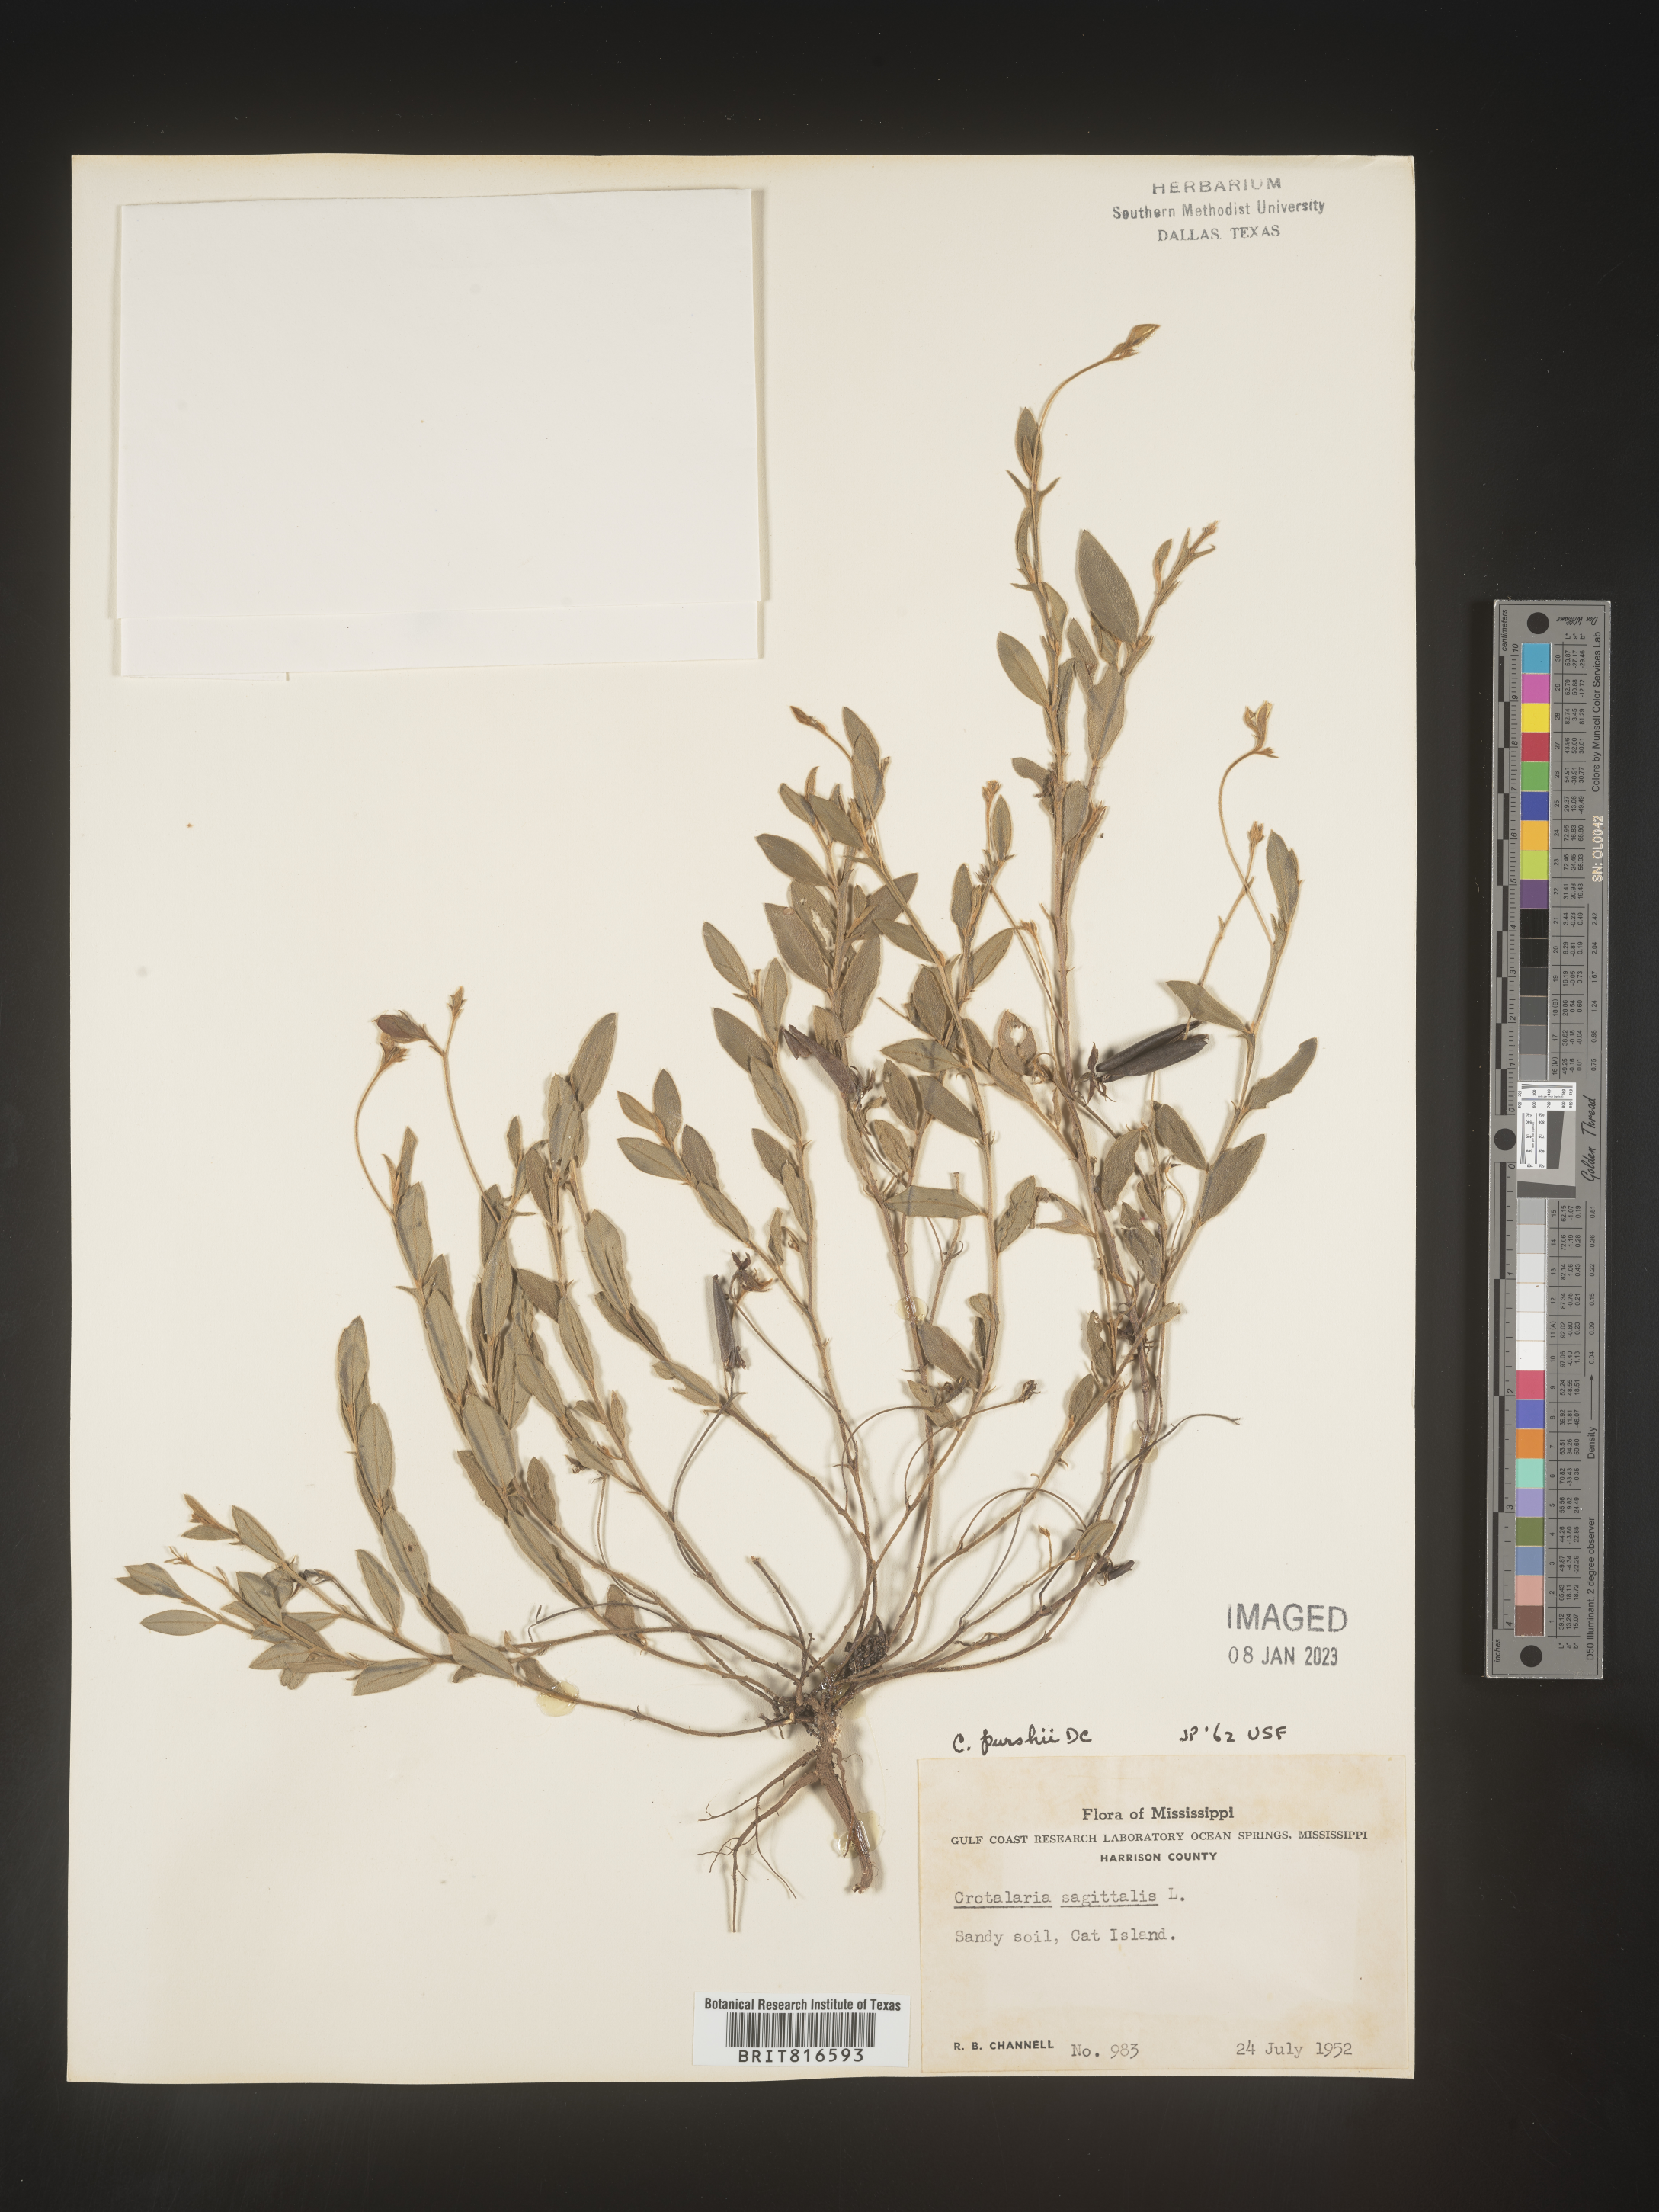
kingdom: Plantae
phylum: Tracheophyta
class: Magnoliopsida
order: Fabales
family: Fabaceae
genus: Crotalaria
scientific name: Crotalaria purshii
